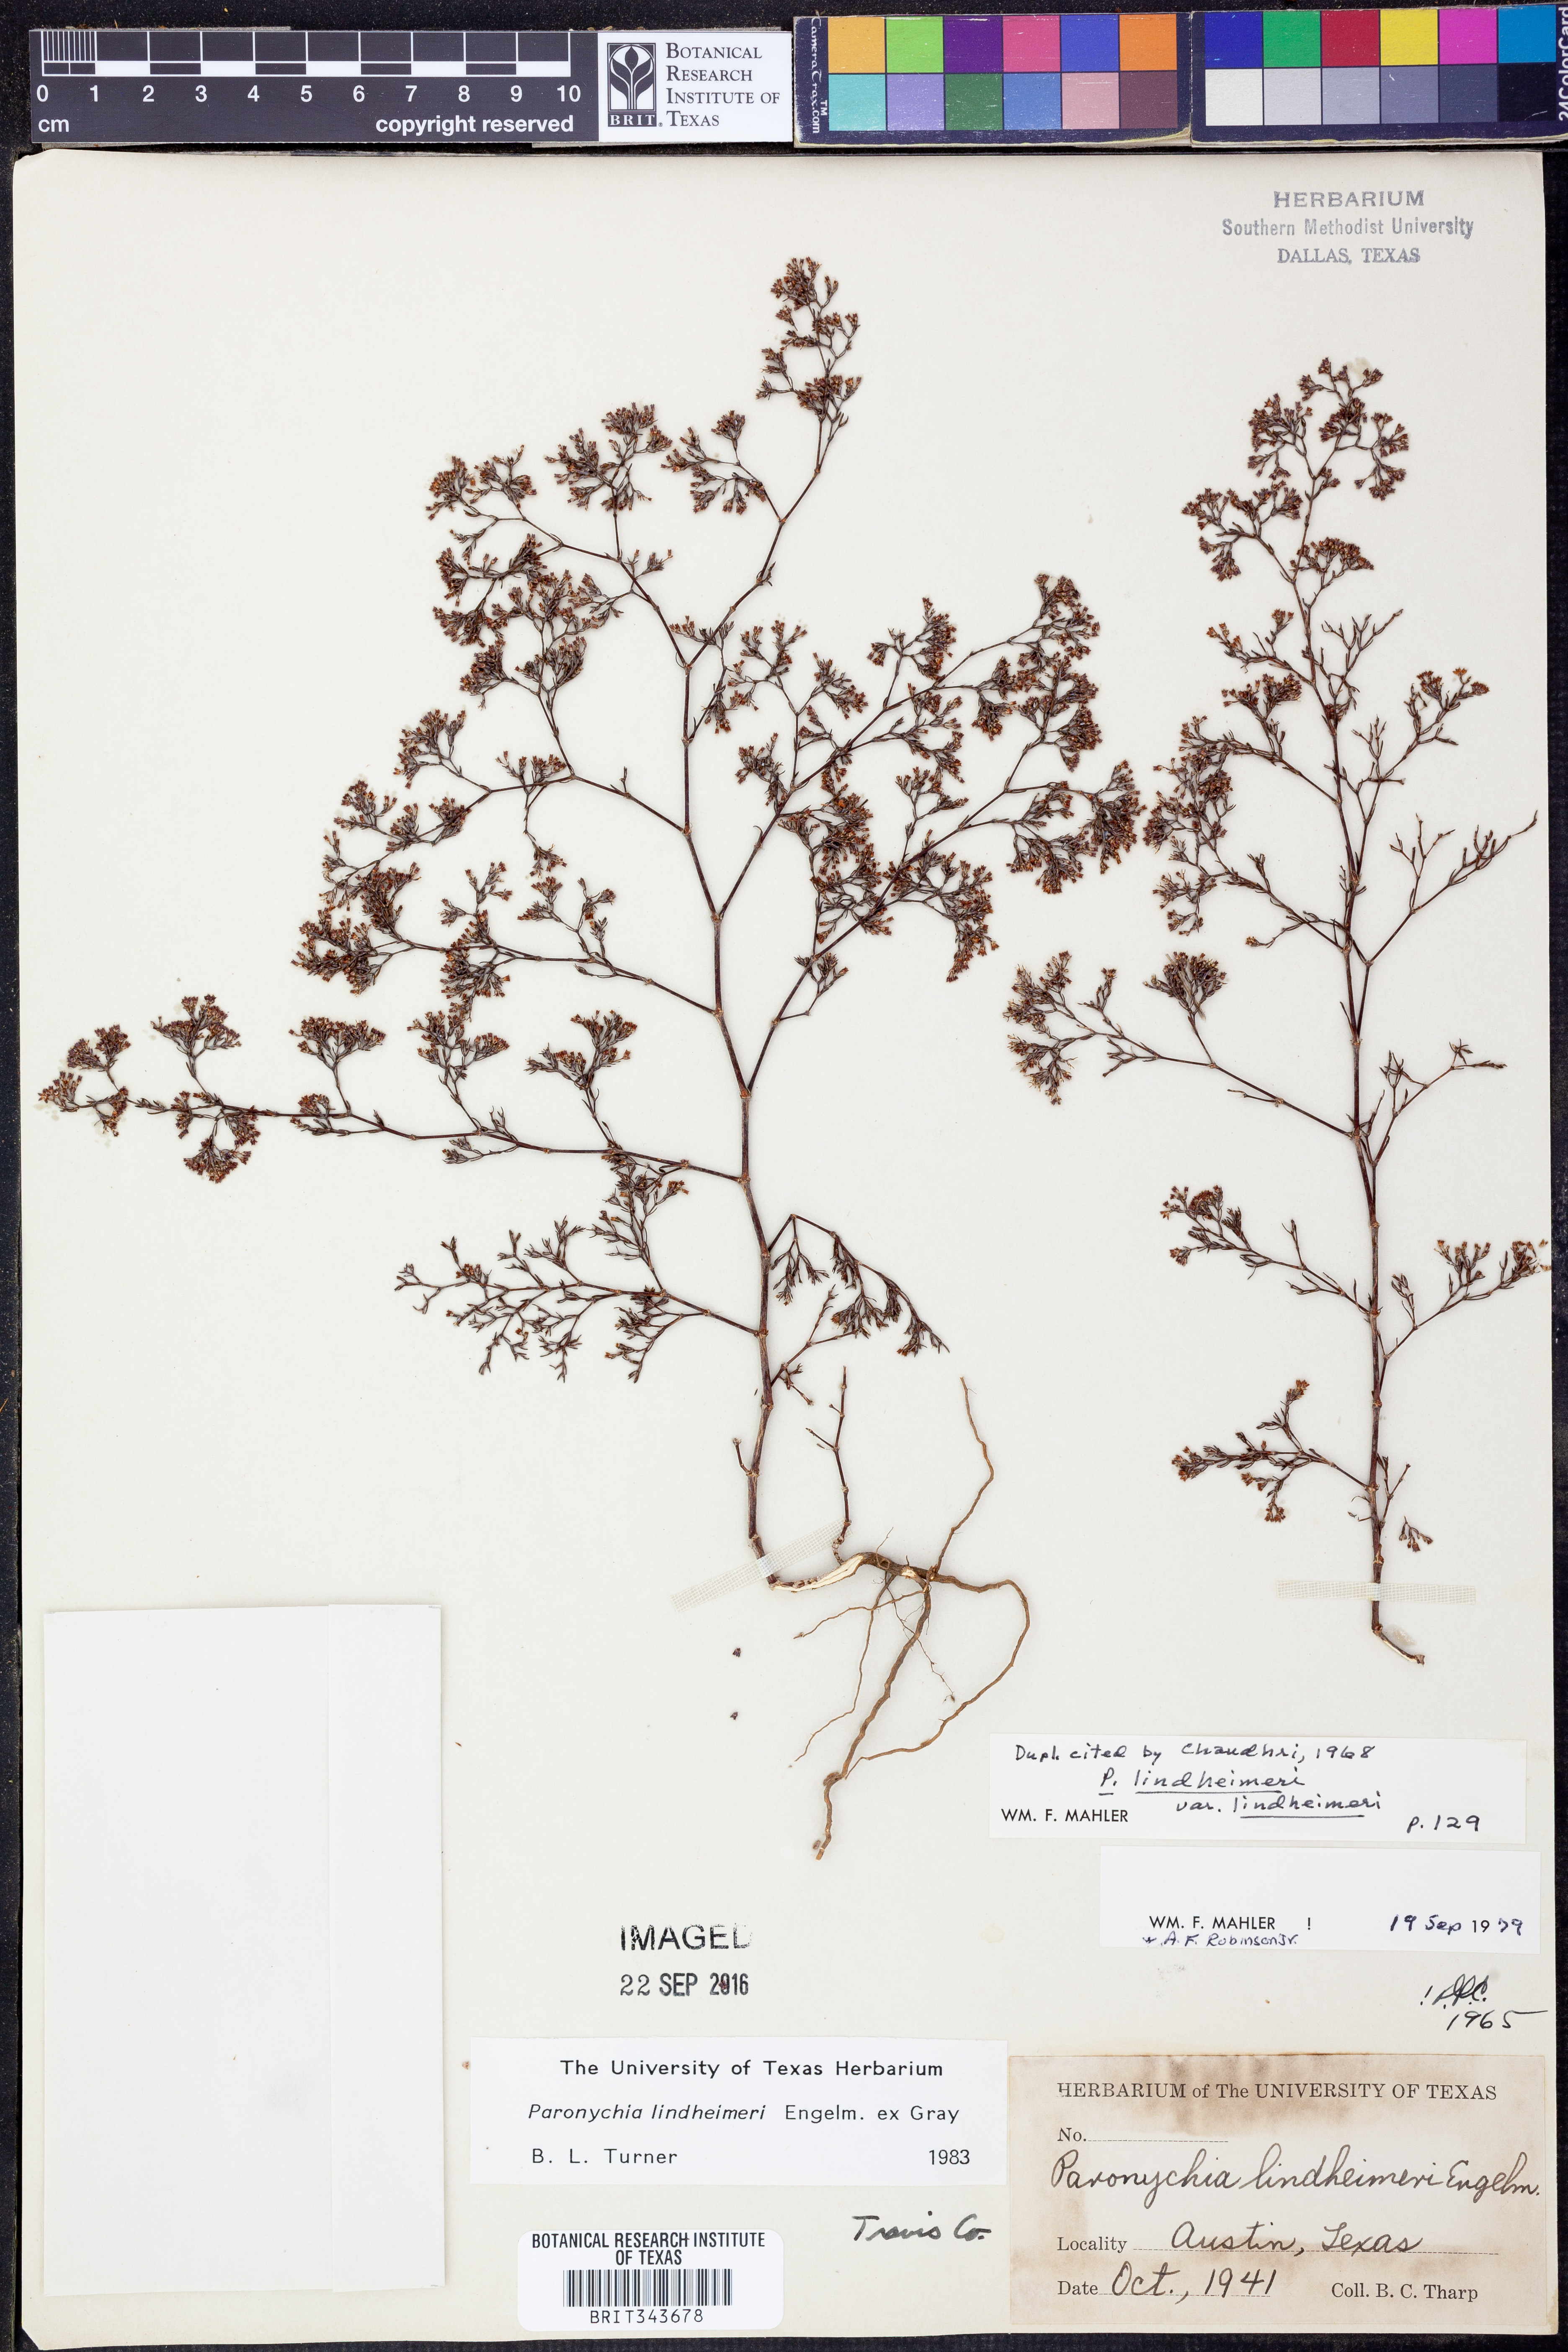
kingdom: Plantae
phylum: Tracheophyta
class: Magnoliopsida
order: Caryophyllales
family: Caryophyllaceae
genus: Paronychia
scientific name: Paronychia lindheimeri
